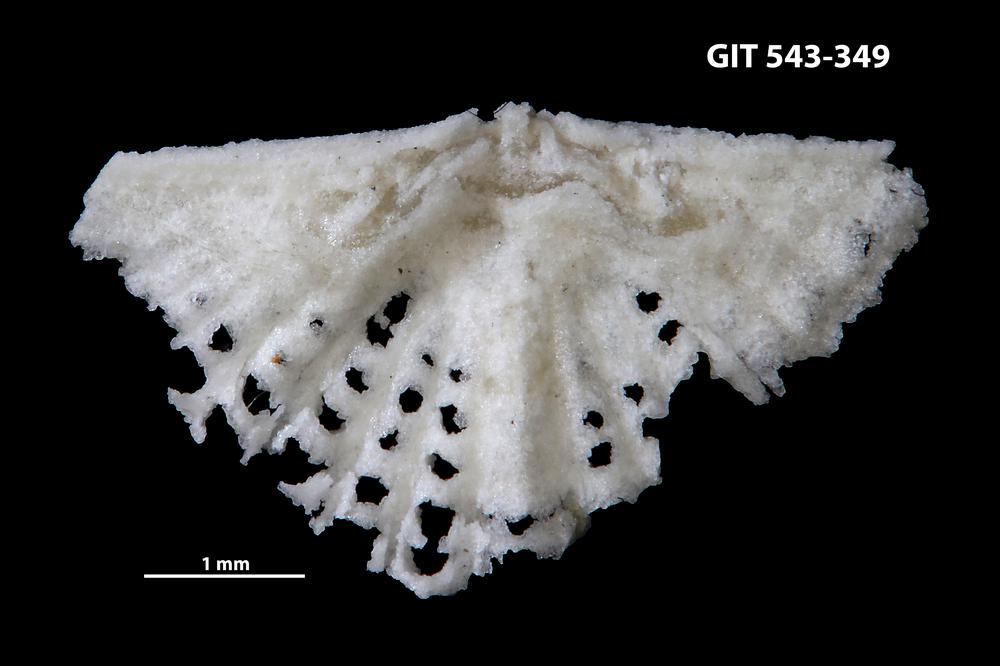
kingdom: Animalia
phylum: Brachiopoda
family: Kullervoidae
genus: Kullervo
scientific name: Kullervo
